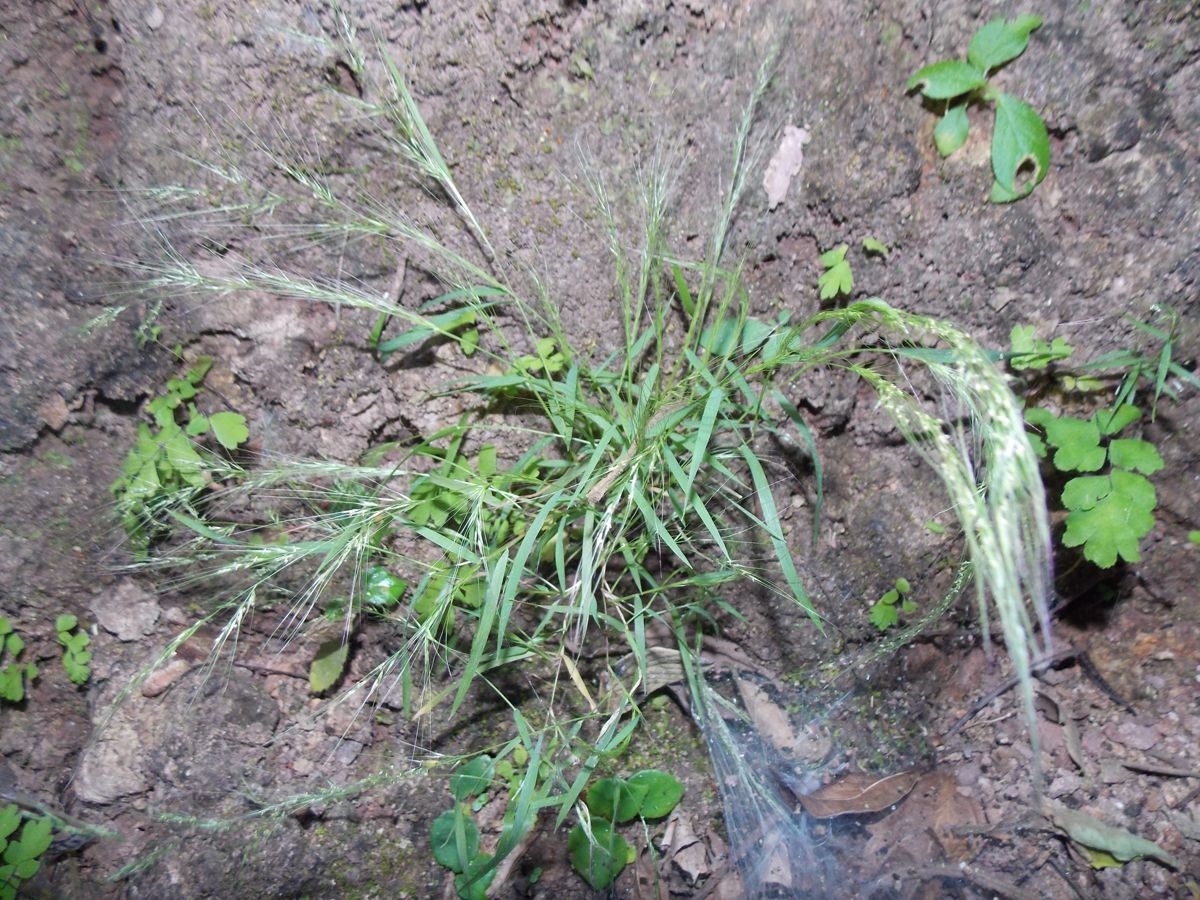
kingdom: Plantae
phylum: Tracheophyta
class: Liliopsida
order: Poales
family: Poaceae
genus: Aristida
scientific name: Aristida capillacea
